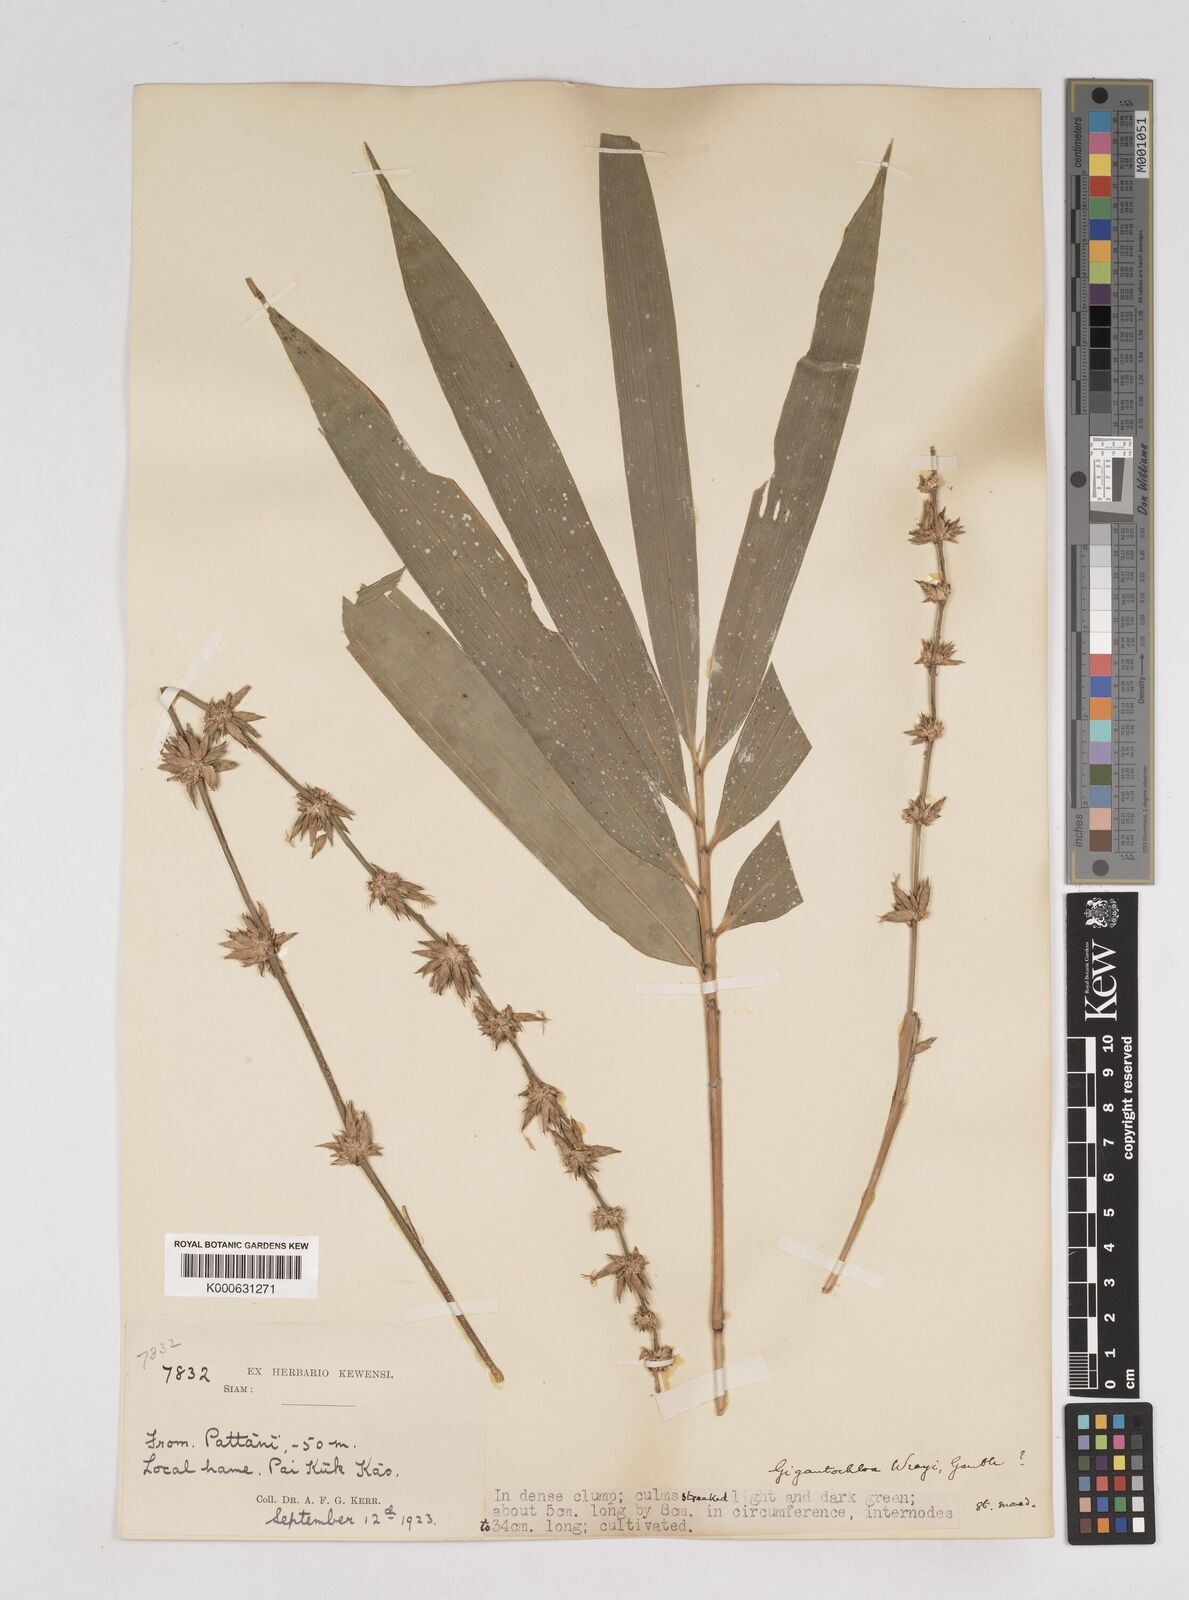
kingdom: Plantae
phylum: Tracheophyta
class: Liliopsida
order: Poales
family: Poaceae
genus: Gigantochloa
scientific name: Gigantochloa
